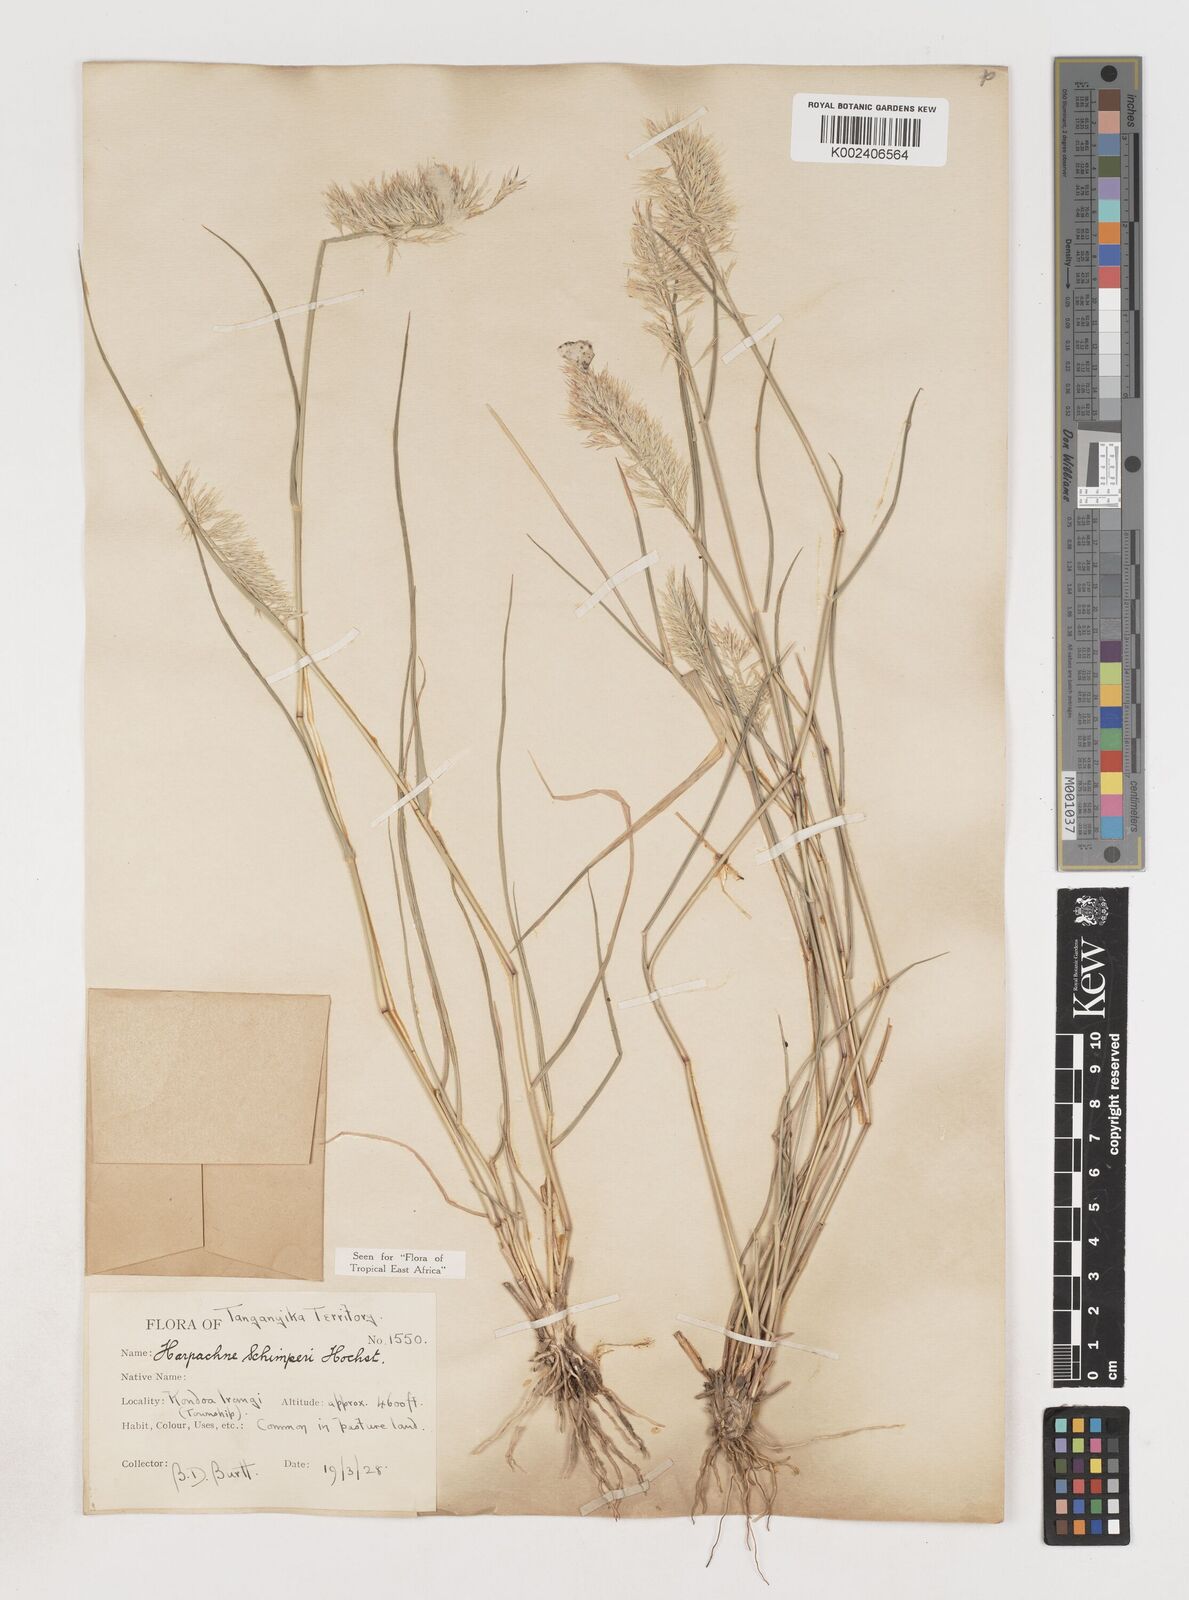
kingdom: Plantae
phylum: Tracheophyta
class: Liliopsida
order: Poales
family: Poaceae
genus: Harpachne
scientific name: Harpachne schimperi
